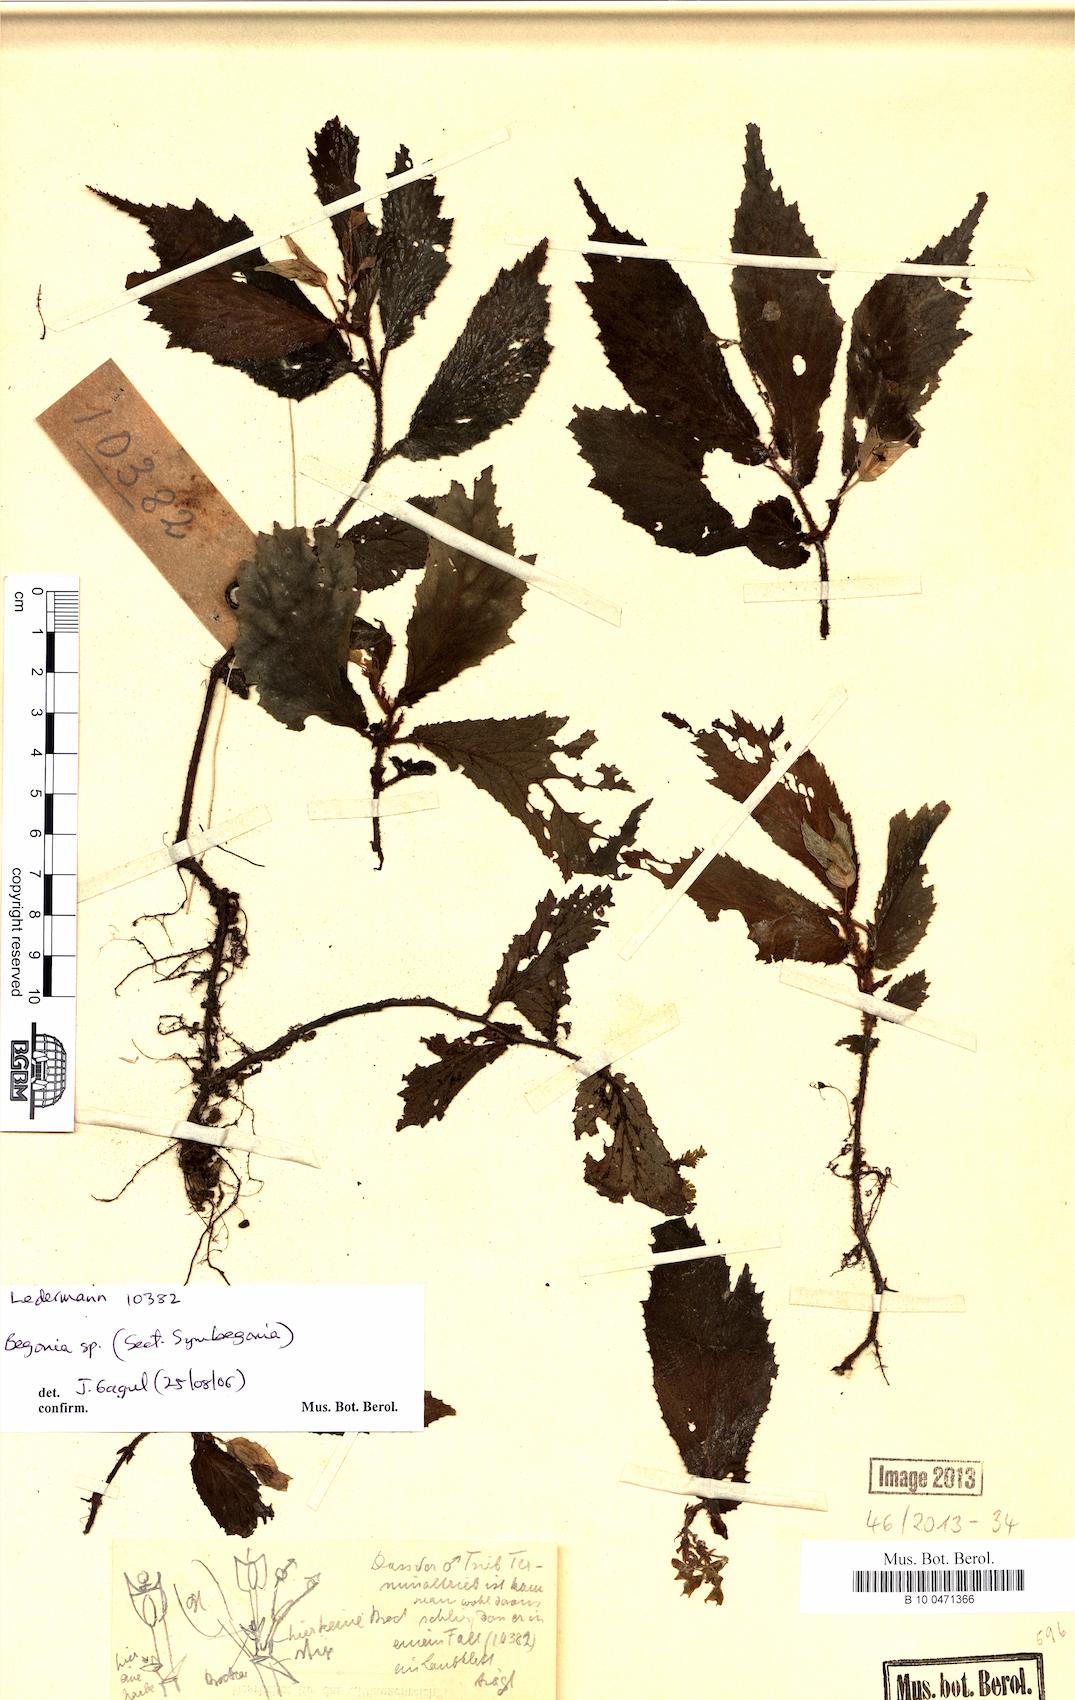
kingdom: Plantae
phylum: Tracheophyta
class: Magnoliopsida
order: Cucurbitales
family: Begoniaceae
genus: Begonia
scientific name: Begonia
